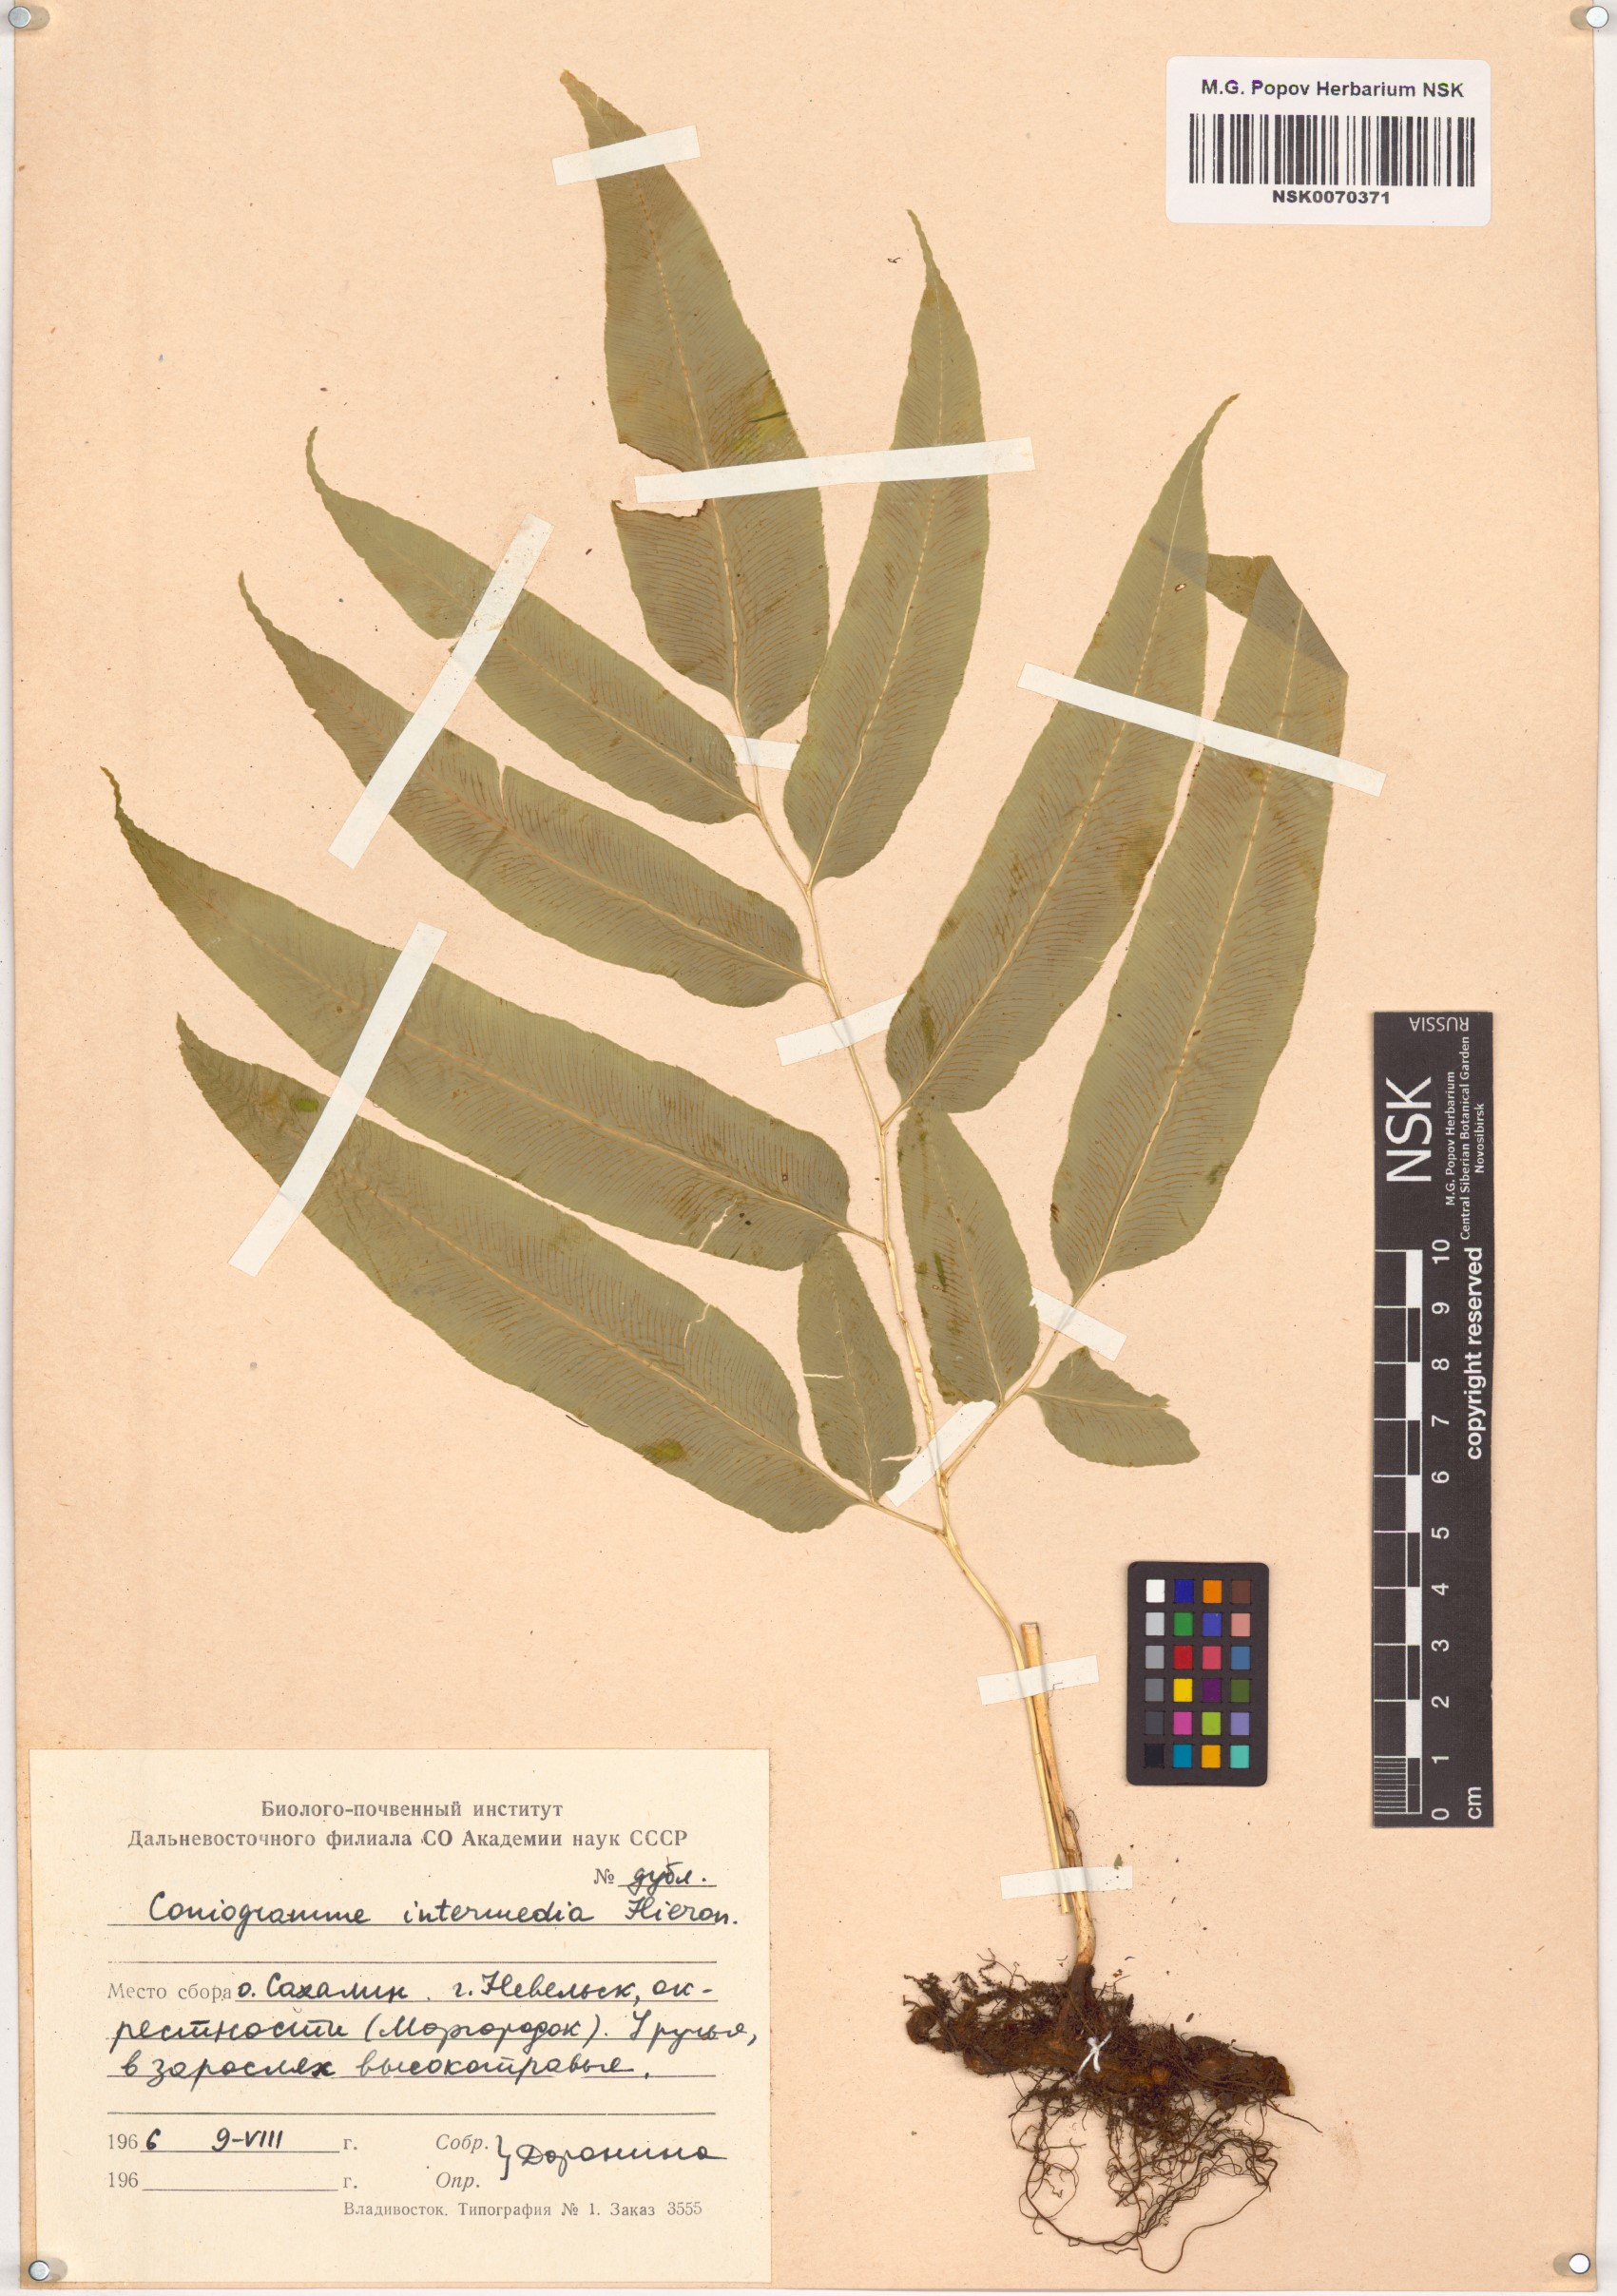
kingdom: Plantae
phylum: Tracheophyta
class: Polypodiopsida
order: Polypodiales
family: Pteridaceae
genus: Coniogramme
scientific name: Coniogramme intermedia
